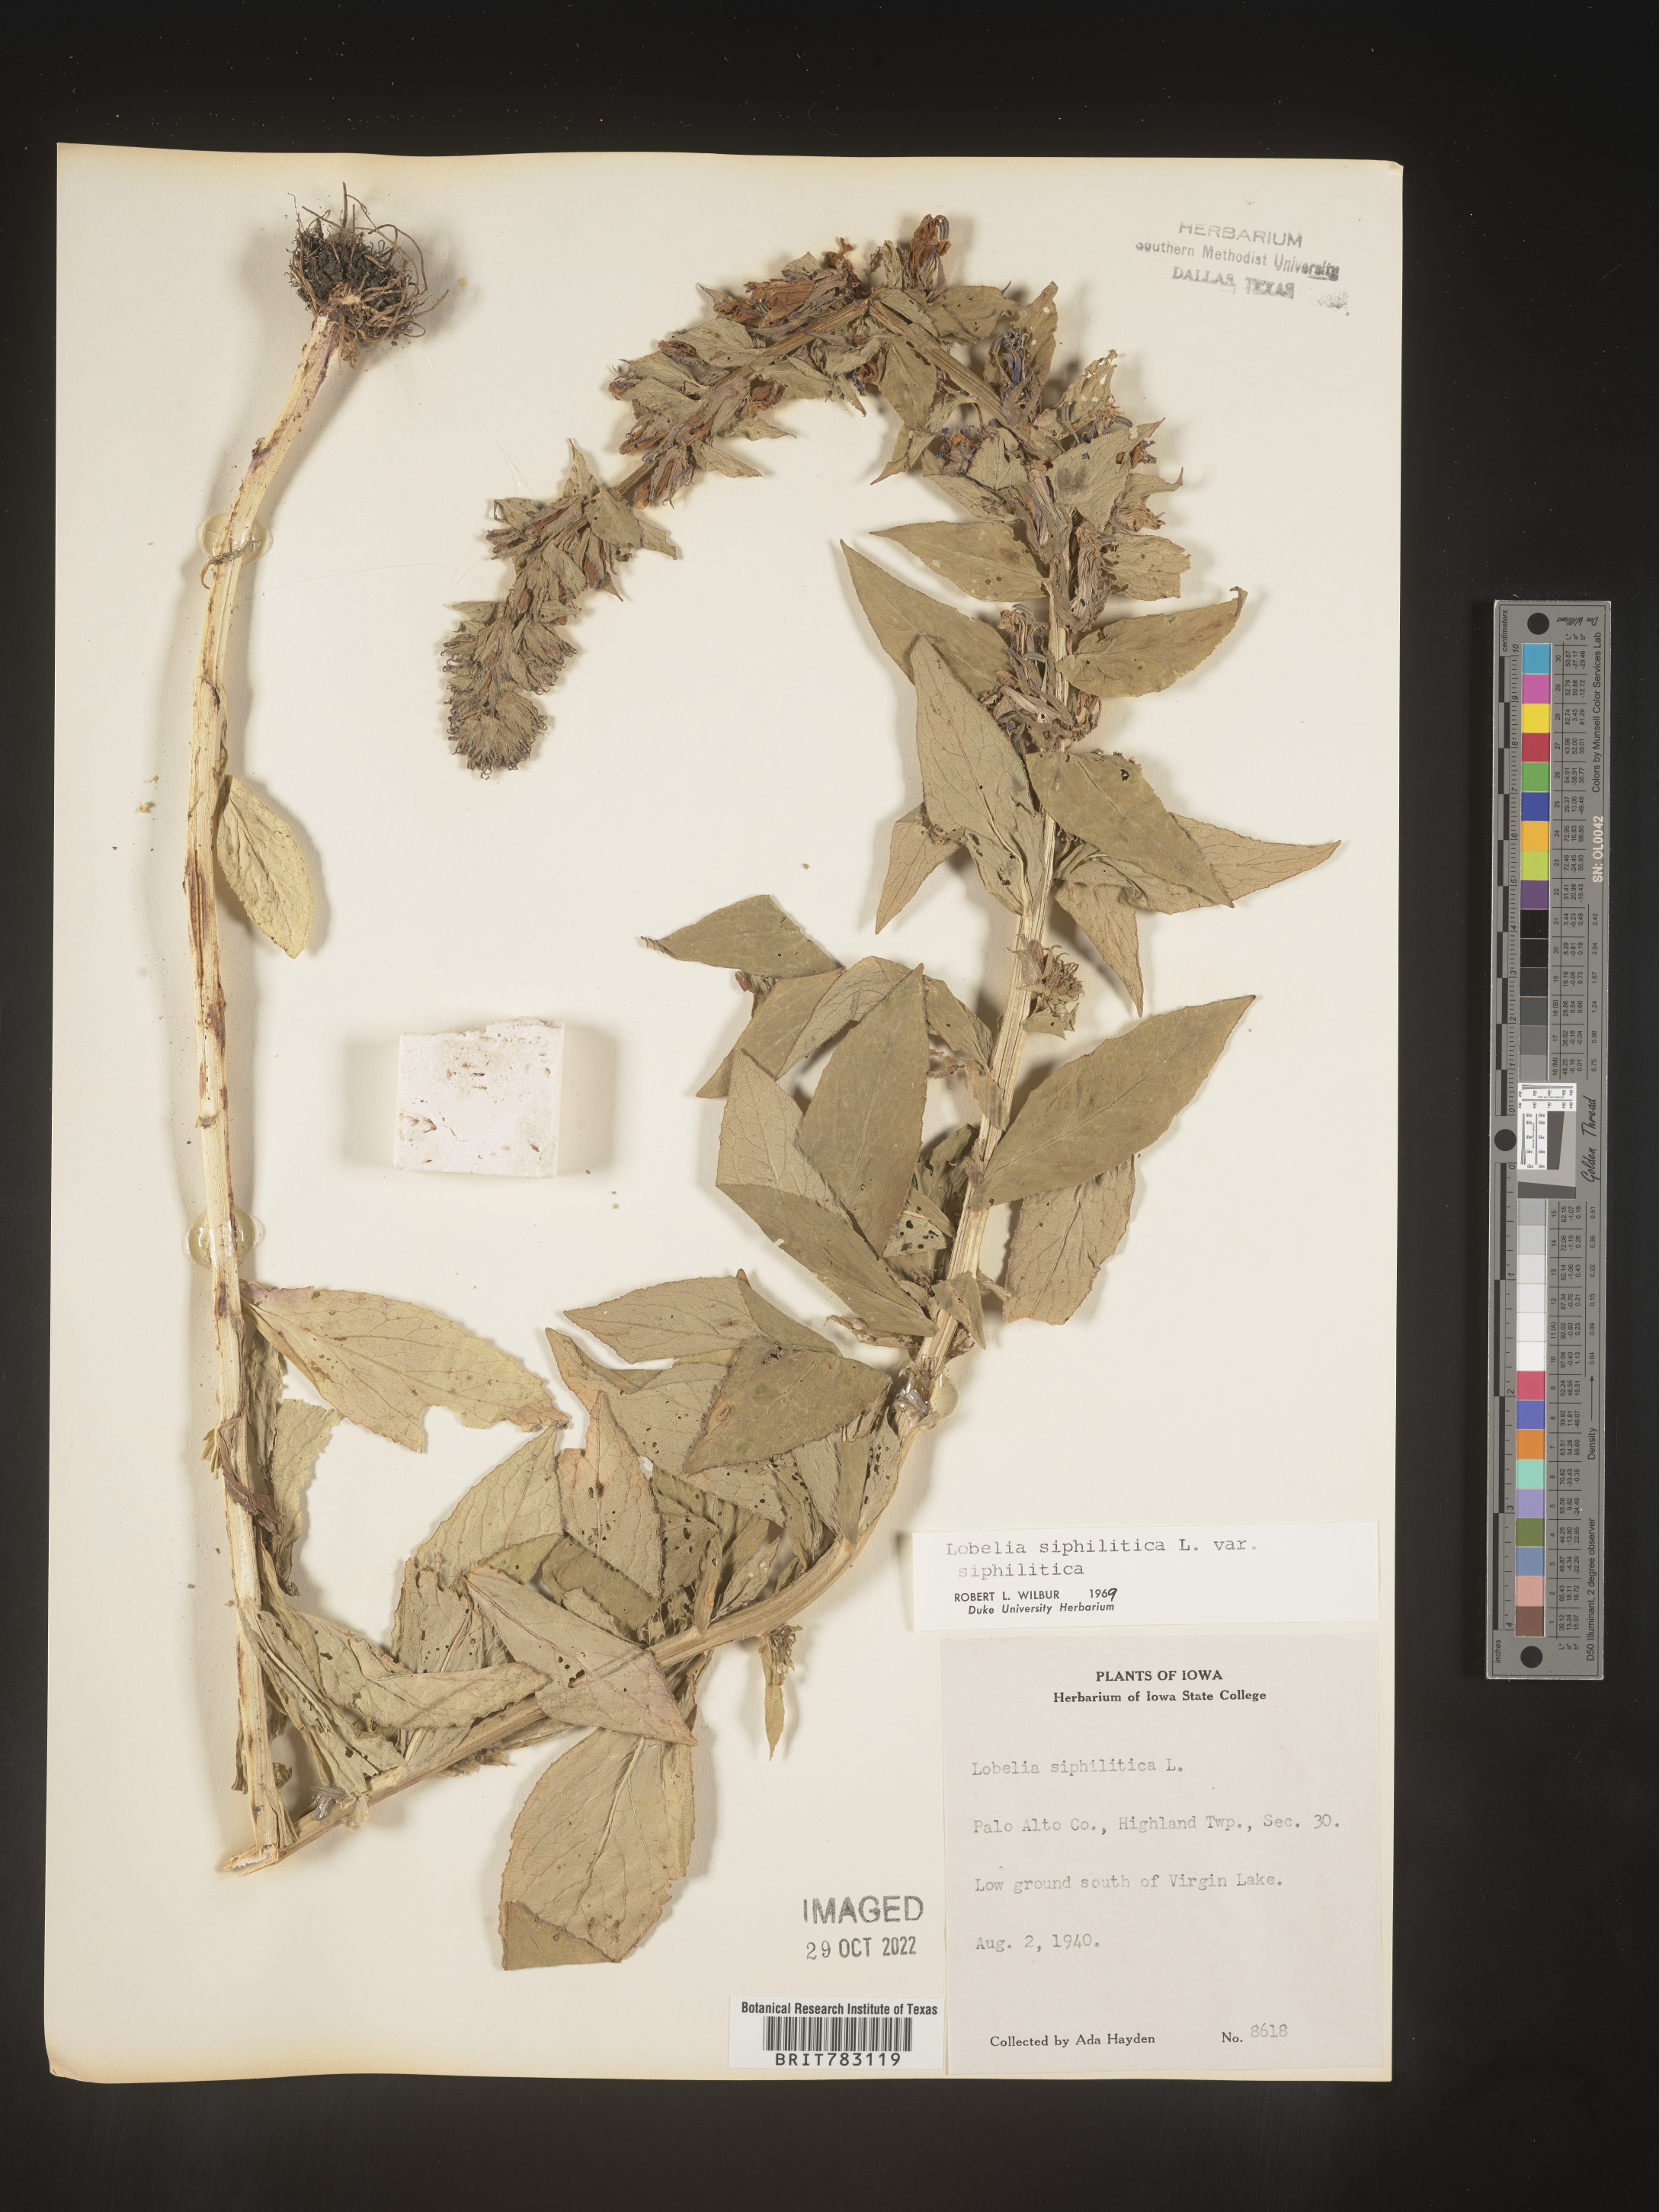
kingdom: Plantae
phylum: Tracheophyta
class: Magnoliopsida
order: Asterales
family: Campanulaceae
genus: Lobelia
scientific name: Lobelia siphilitica
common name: Great lobelia
